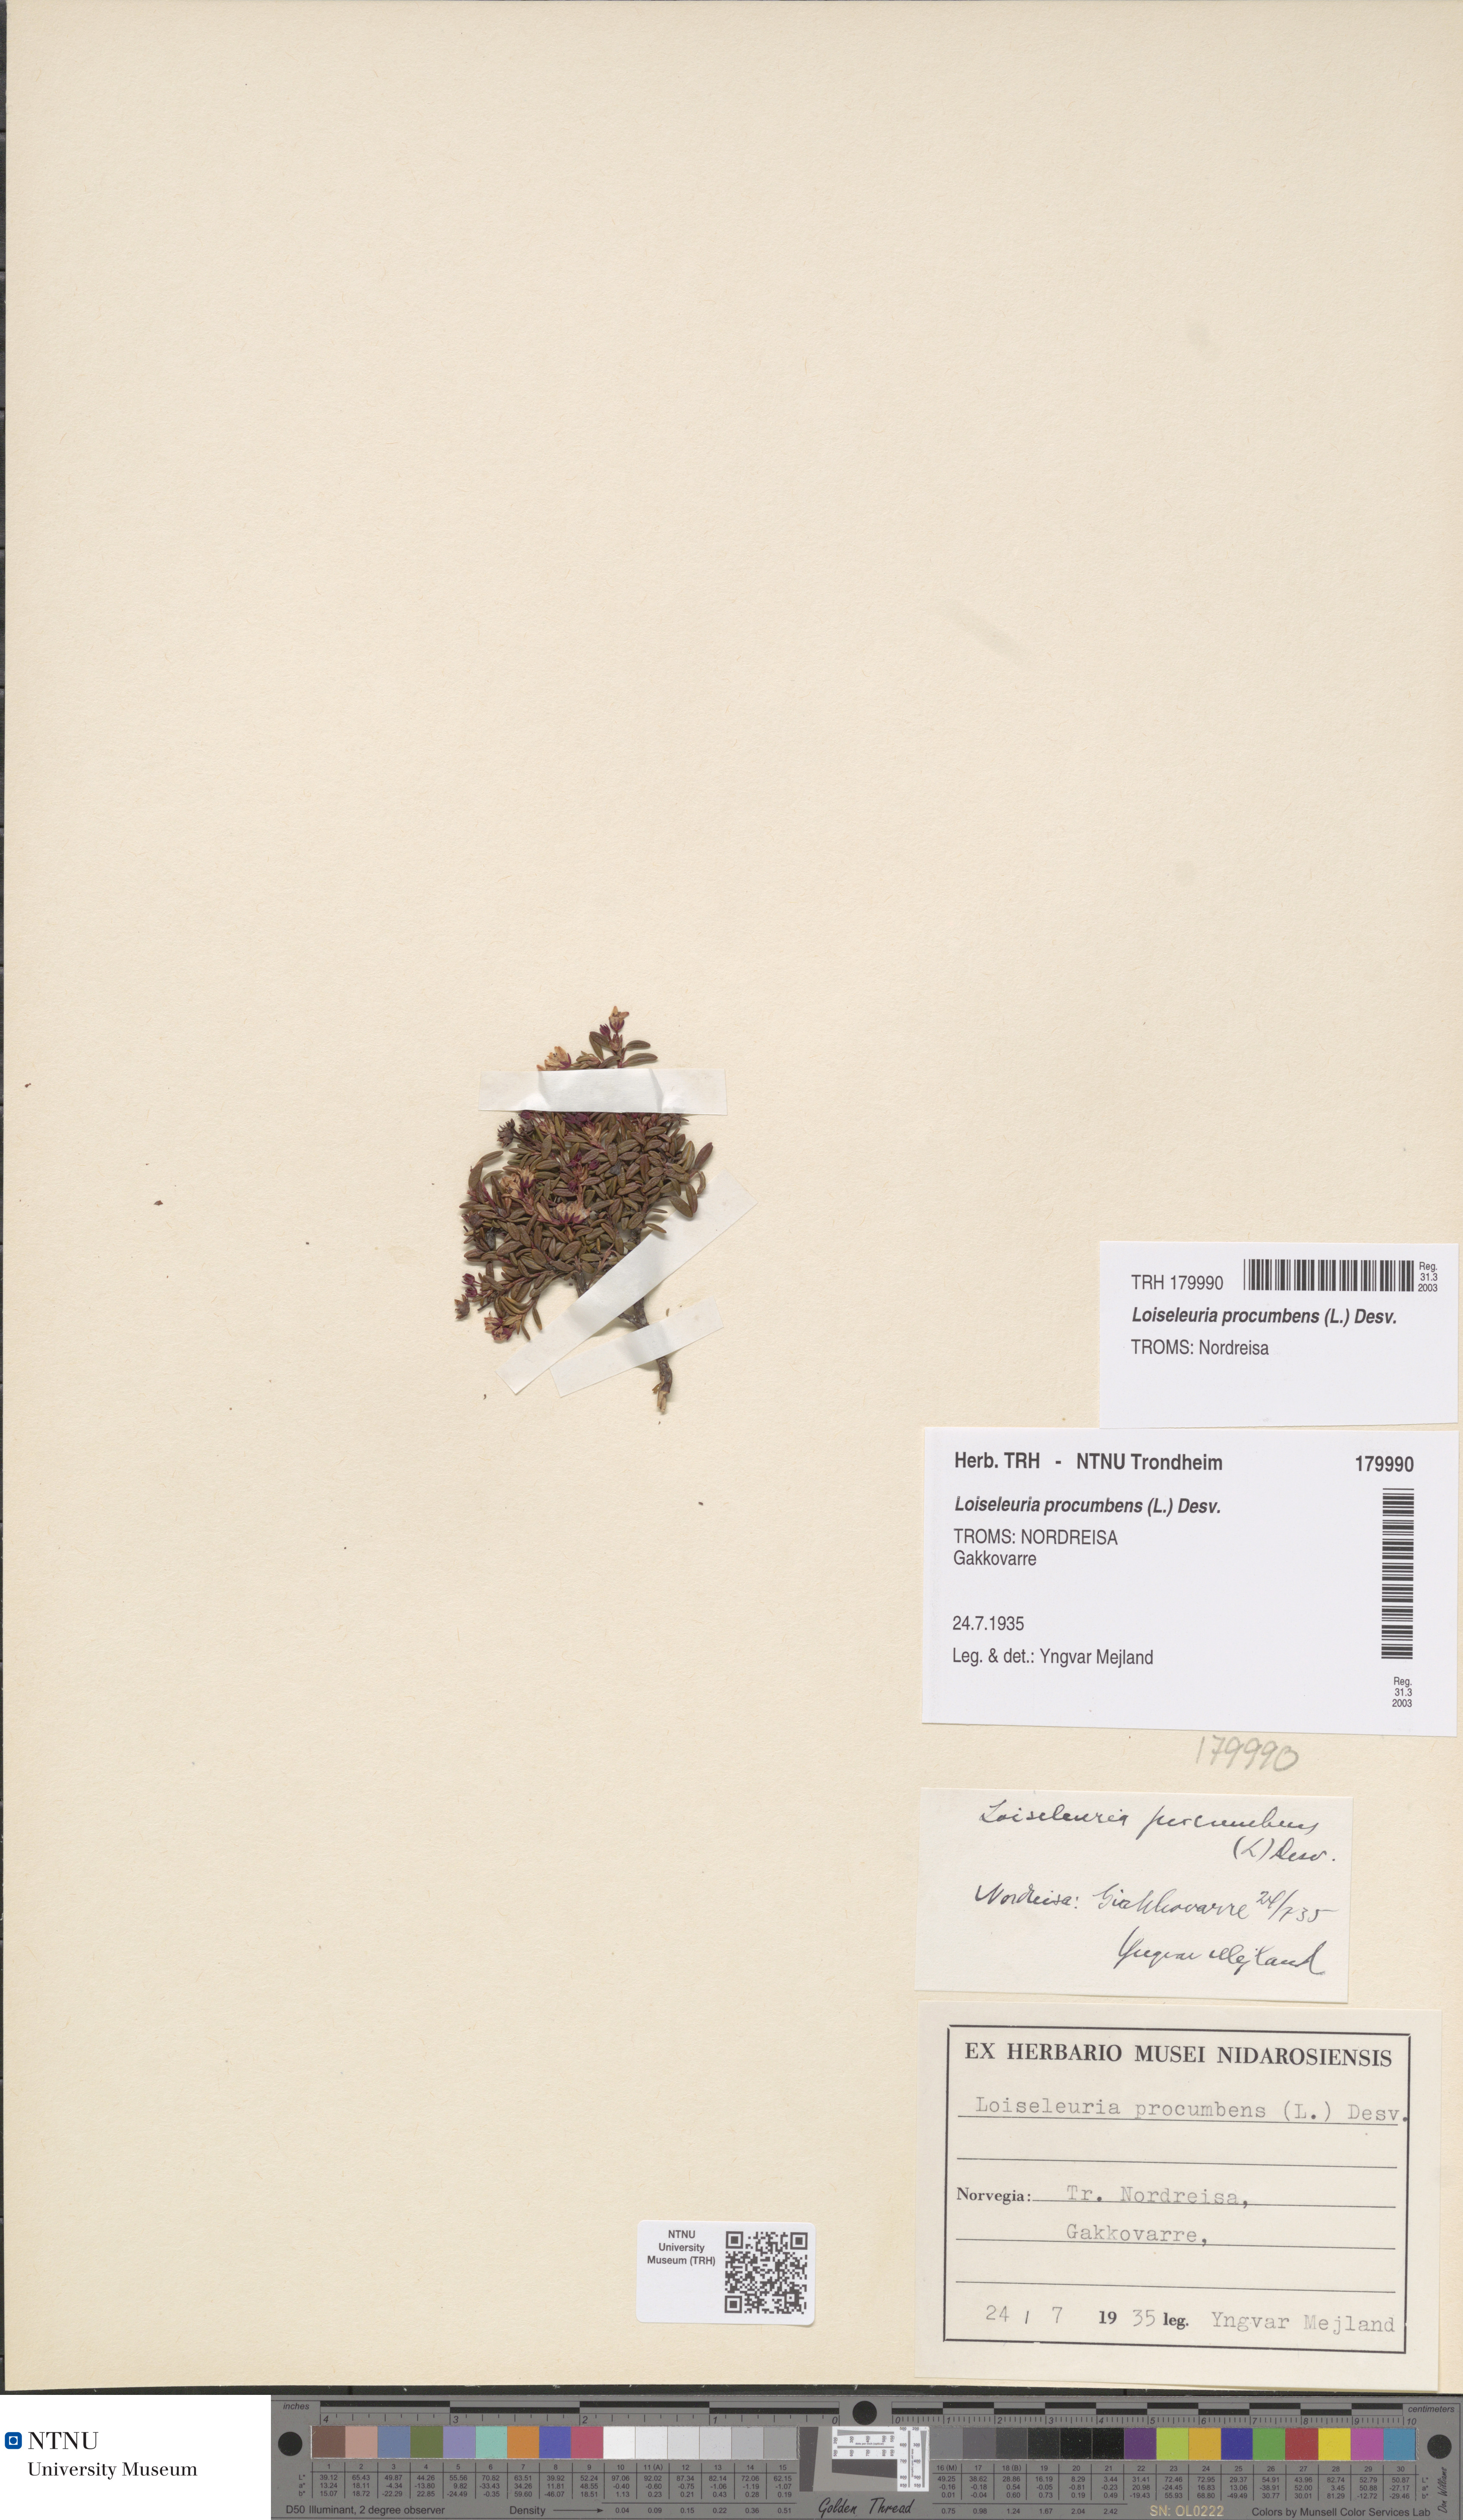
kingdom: Plantae
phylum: Tracheophyta
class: Magnoliopsida
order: Ericales
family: Ericaceae
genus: Kalmia
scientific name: Kalmia procumbens
